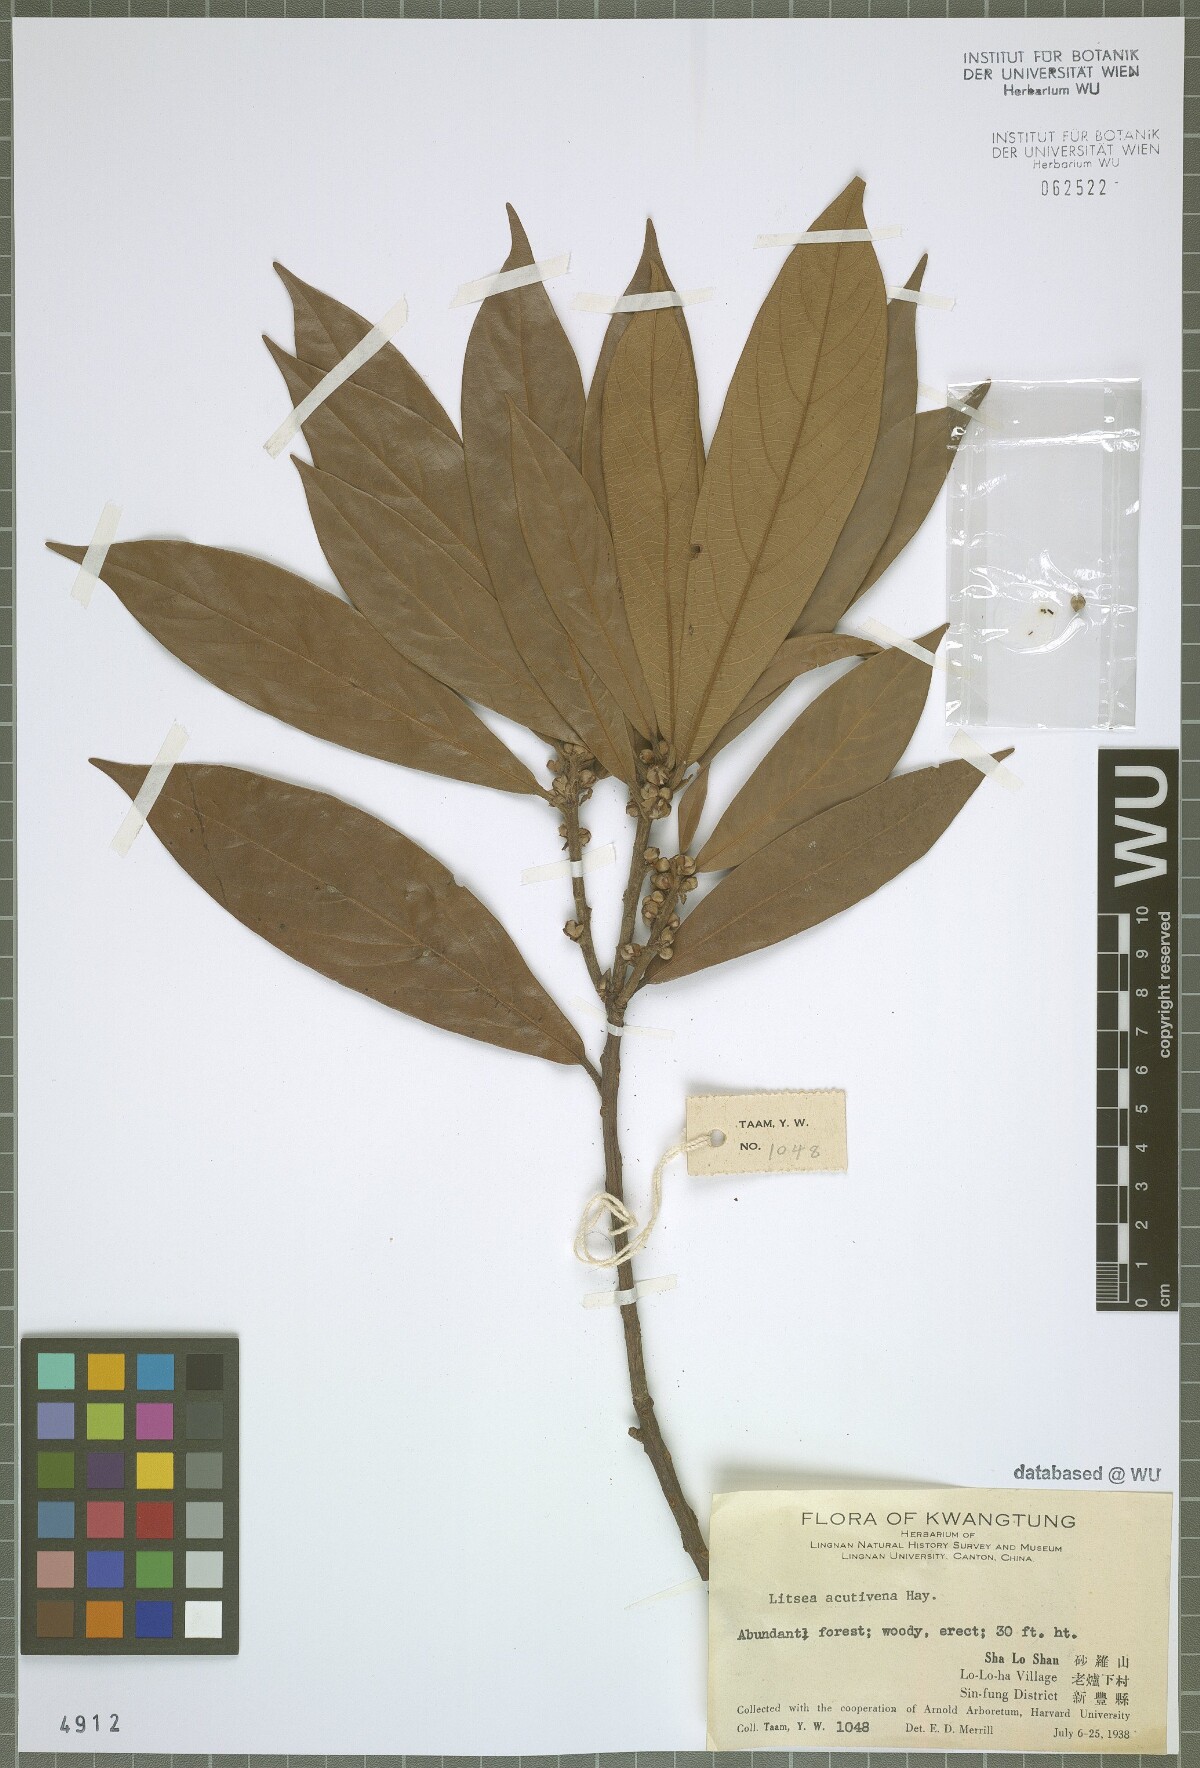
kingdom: Plantae
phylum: Tracheophyta
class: Magnoliopsida
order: Laurales
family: Lauraceae
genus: Litsea
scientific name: Litsea acutivena
